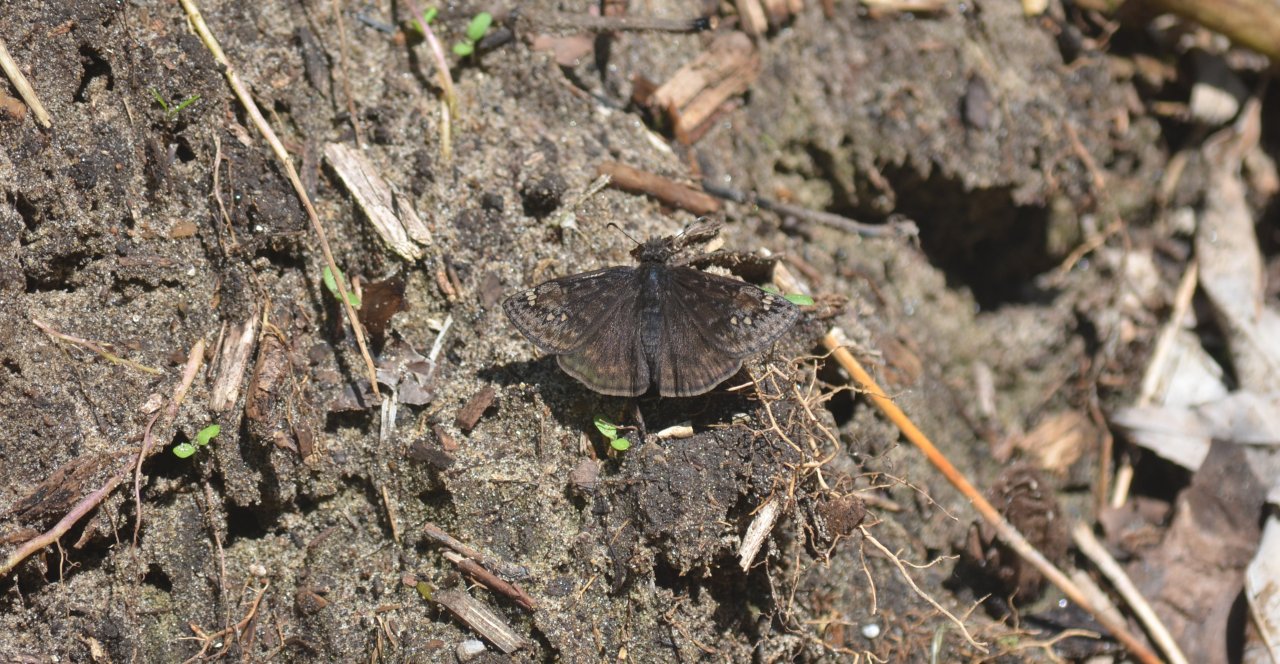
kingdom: Animalia
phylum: Arthropoda
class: Insecta
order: Lepidoptera
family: Hesperiidae
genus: Gesta
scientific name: Gesta
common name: Juvenal's Duskywing
